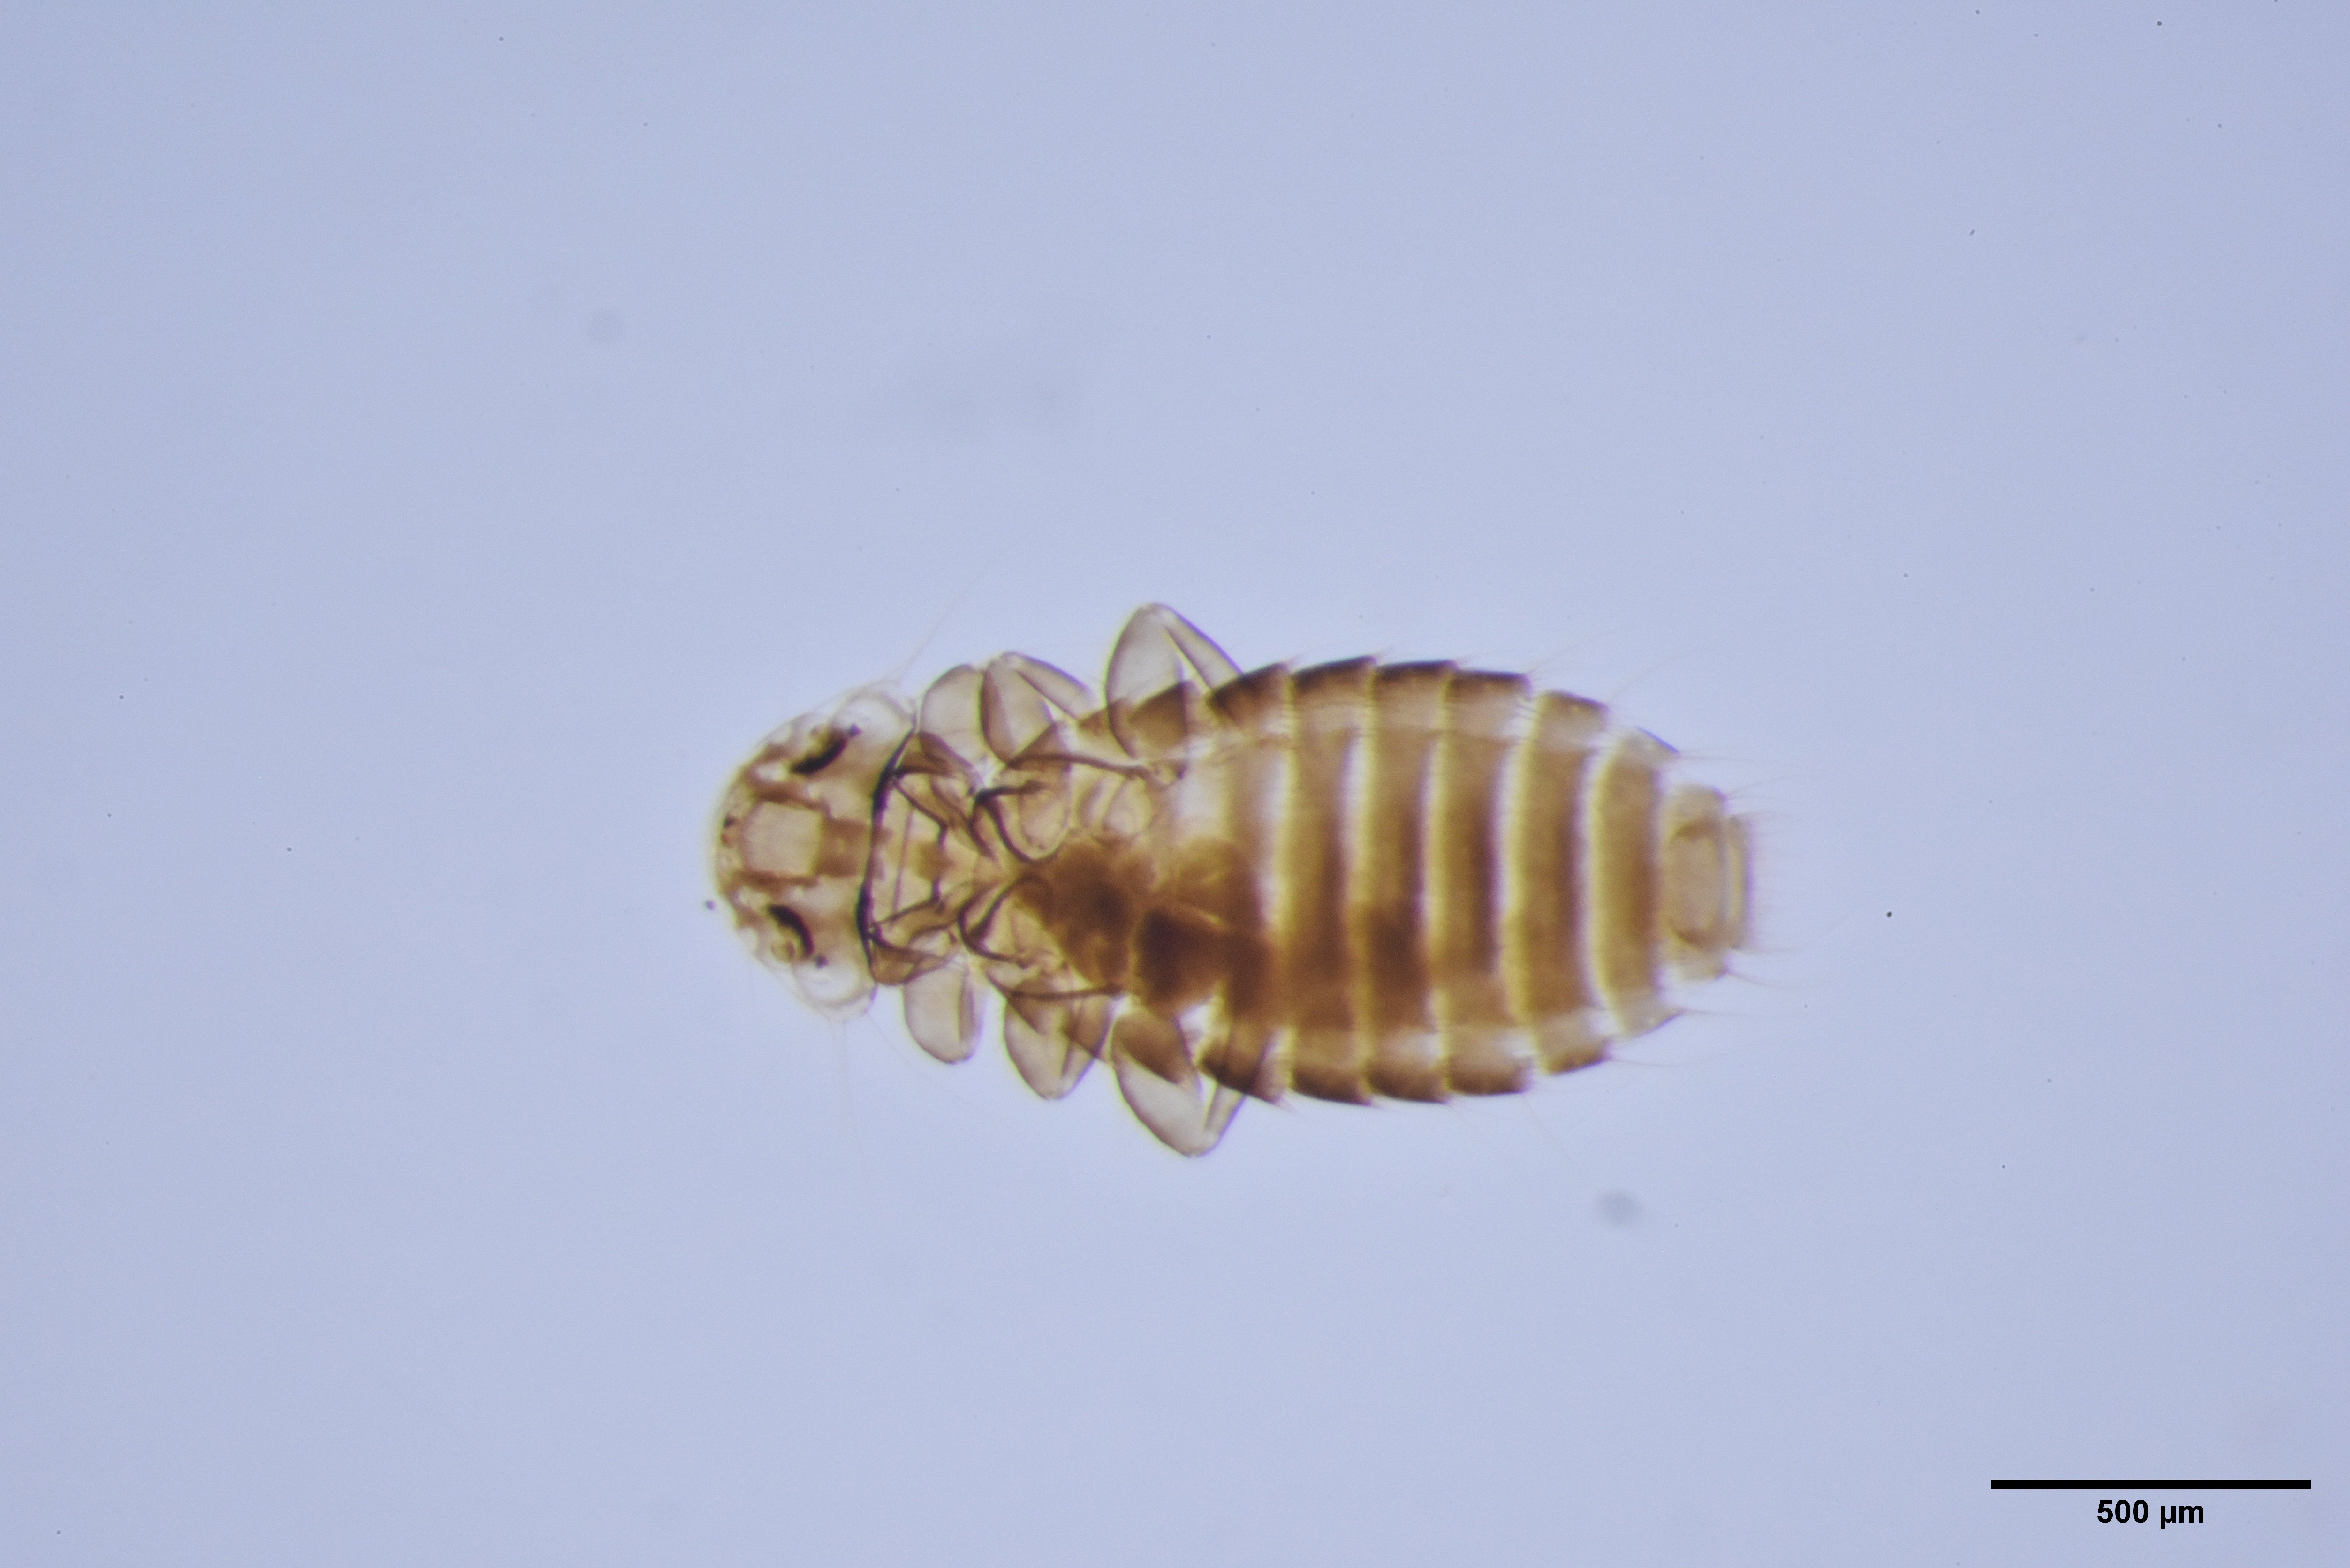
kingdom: Animalia
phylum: Arthropoda
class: Insecta
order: Psocodea
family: Menoponidae
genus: Menacanthus
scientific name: Menacanthus eurysternus
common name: Louse
